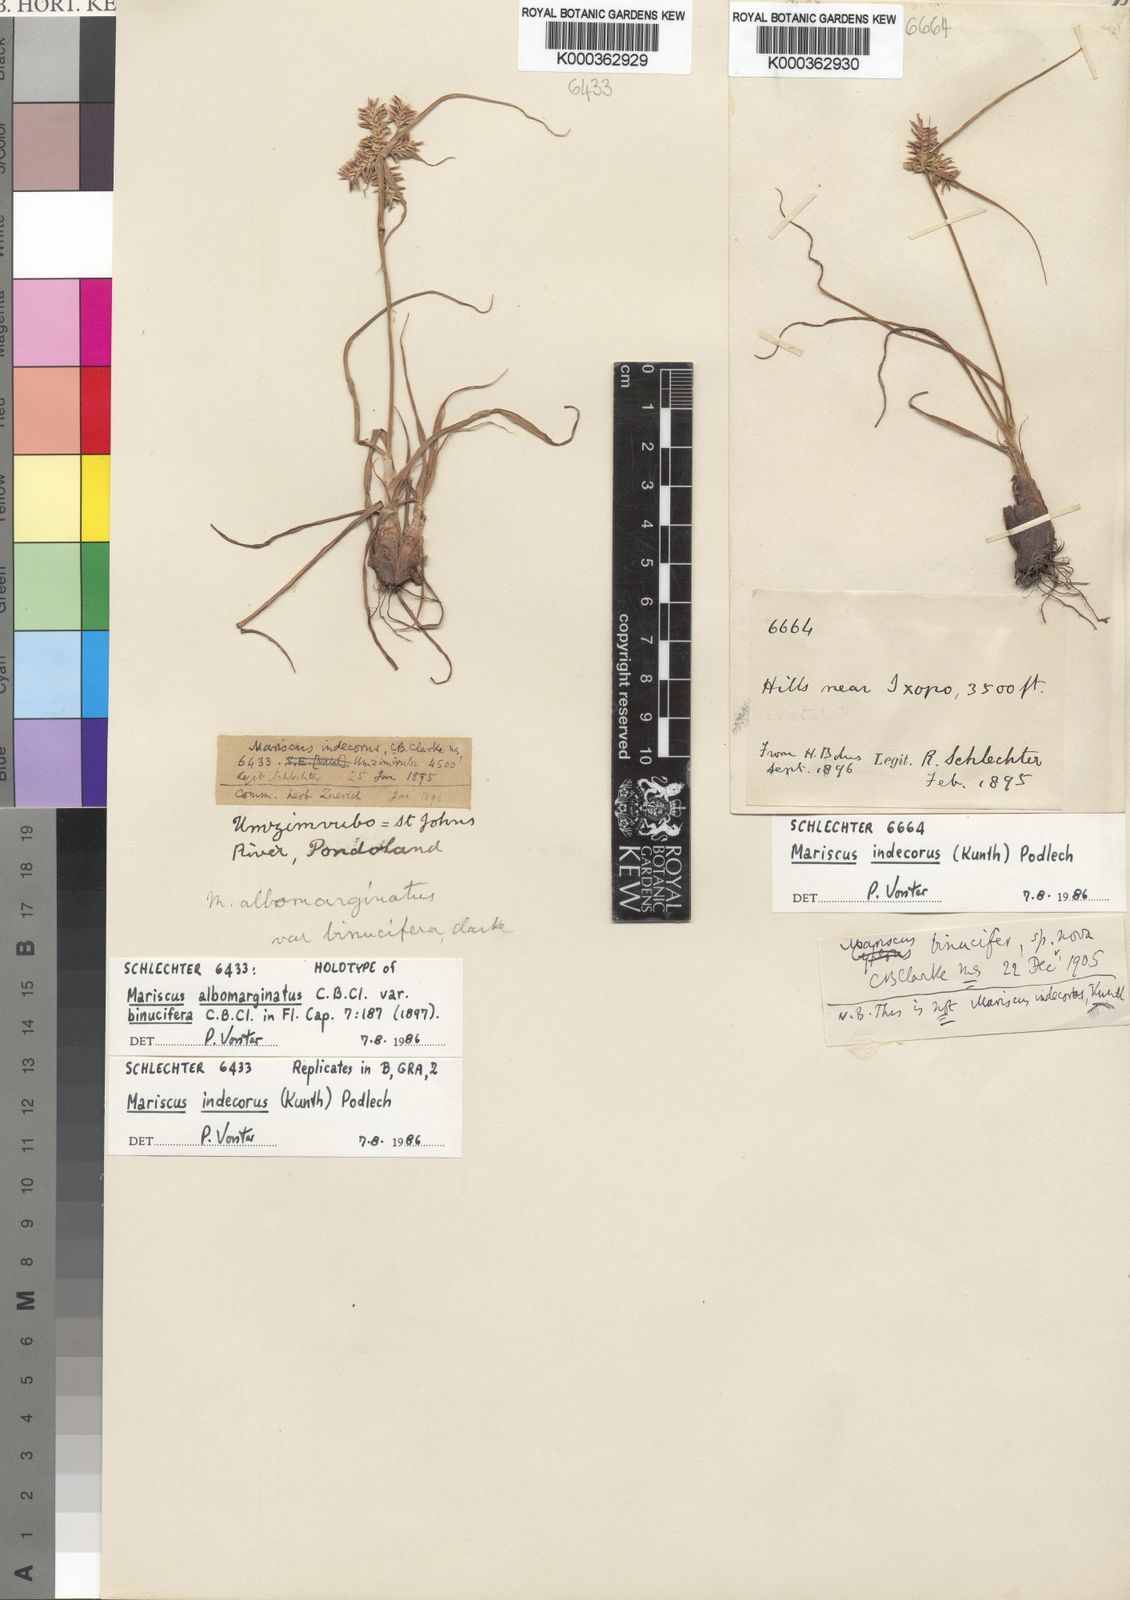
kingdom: Plantae
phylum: Tracheophyta
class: Liliopsida
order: Poales
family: Cyperaceae
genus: Cyperus
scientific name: Cyperus indecorus
